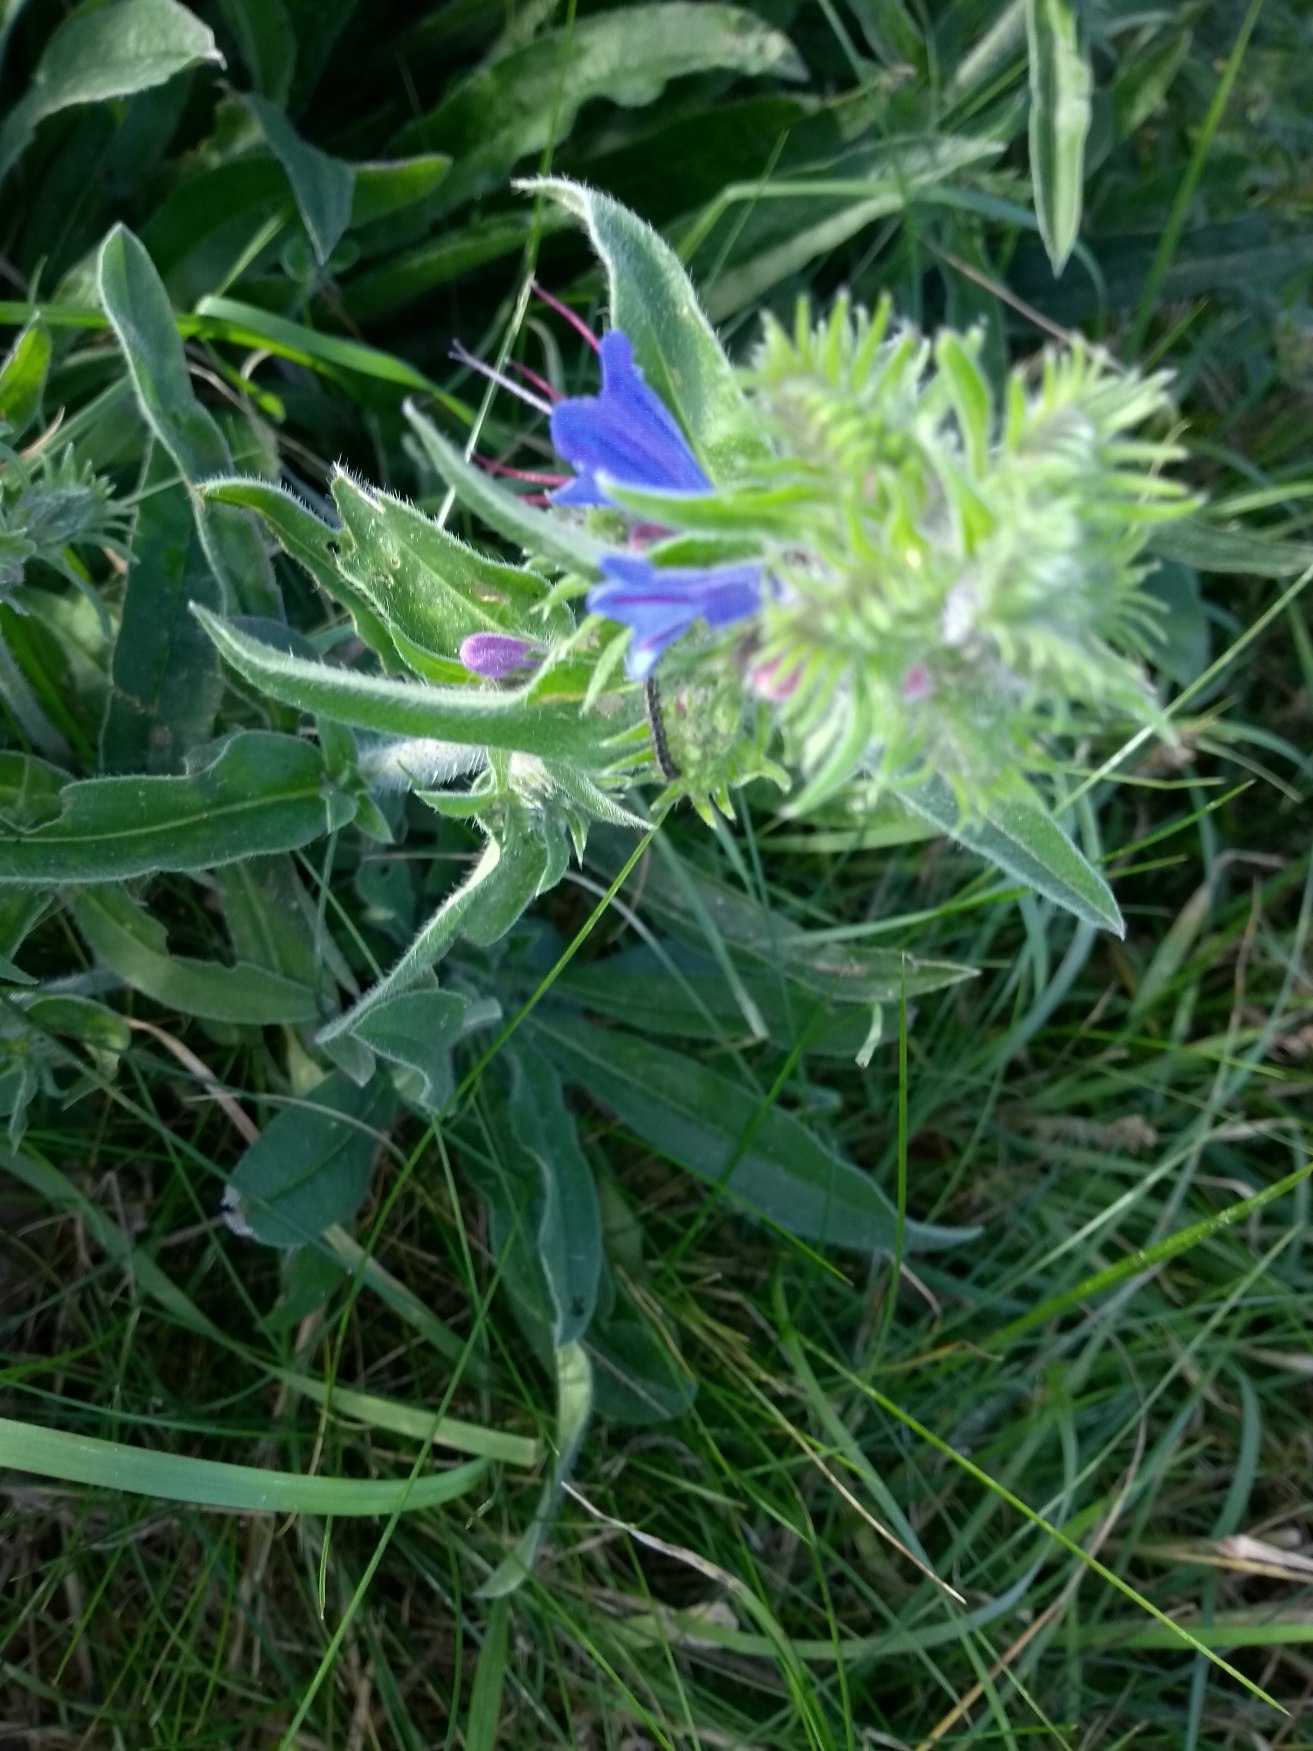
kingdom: Plantae
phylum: Tracheophyta
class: Magnoliopsida
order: Boraginales
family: Boraginaceae
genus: Echium
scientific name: Echium vulgare
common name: Slangehoved
